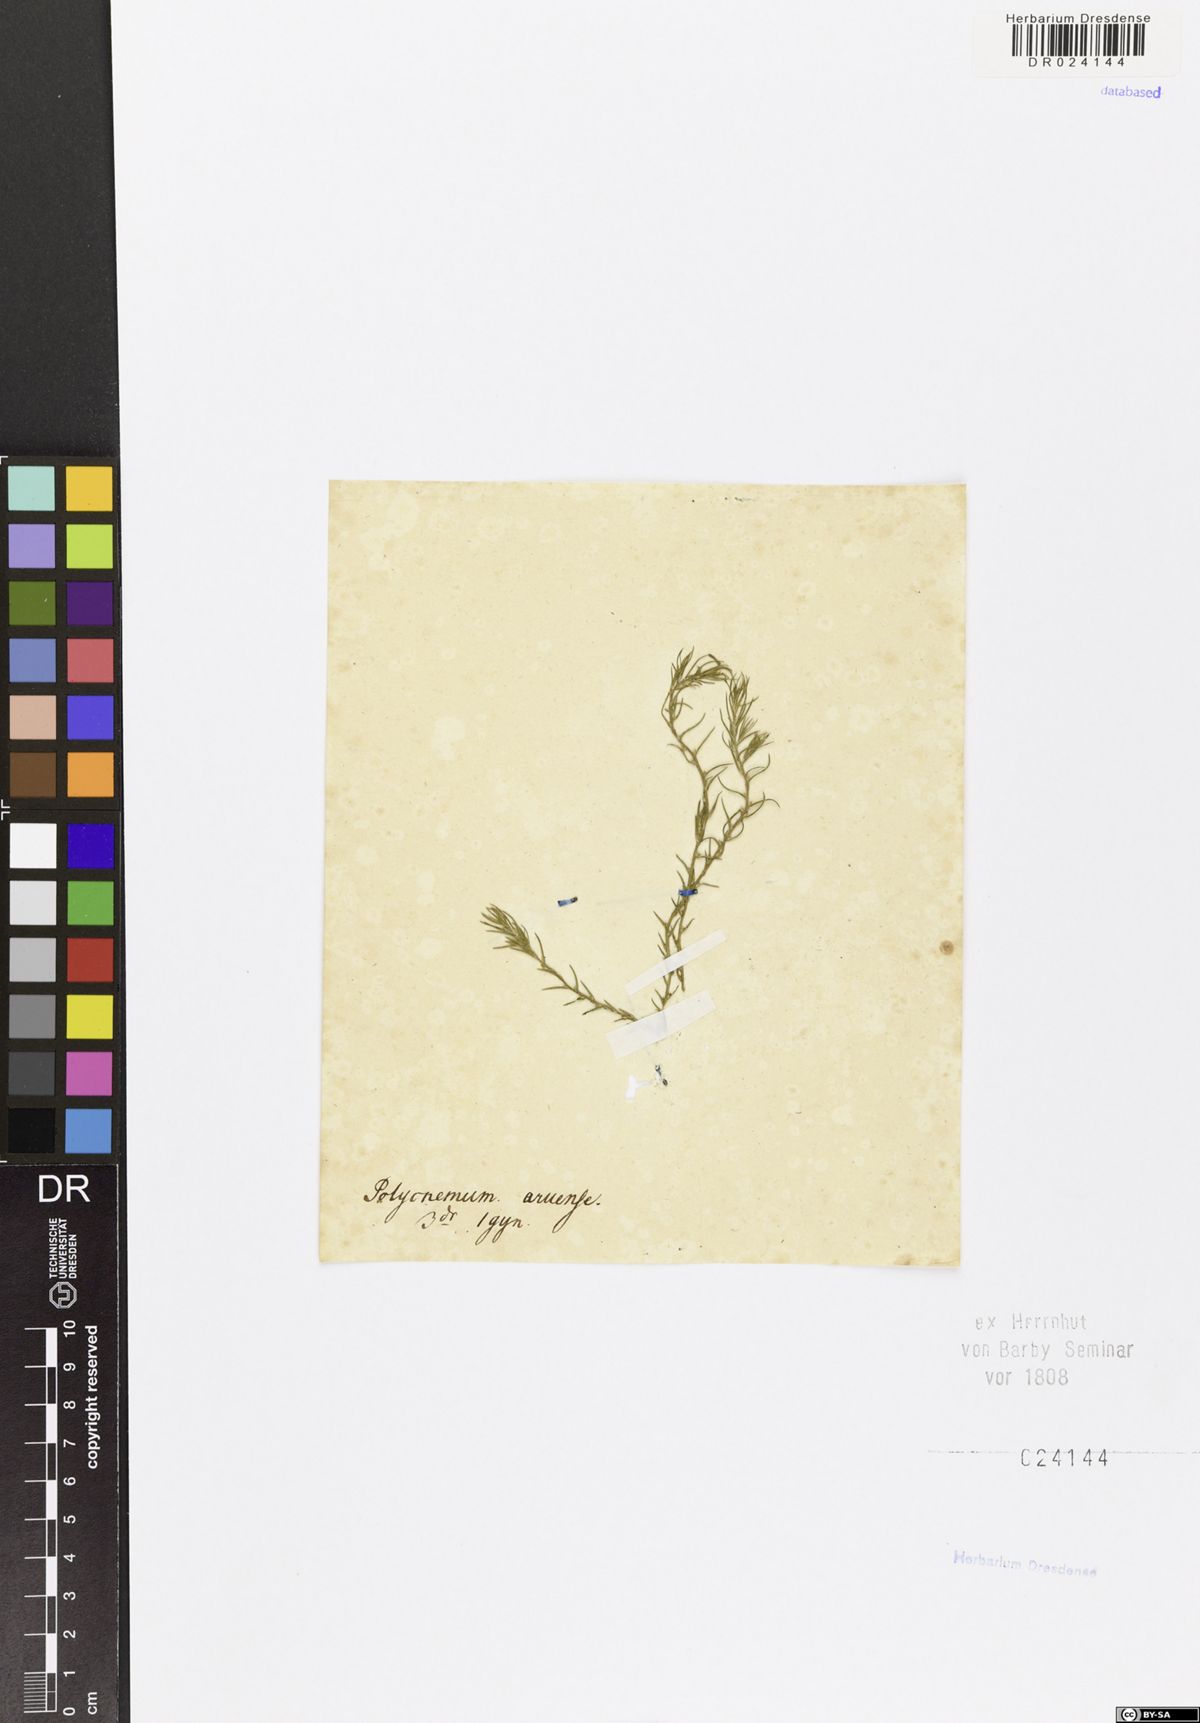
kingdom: Plantae
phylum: Tracheophyta
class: Magnoliopsida
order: Caryophyllales
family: Amaranthaceae
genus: Polycnemum
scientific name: Polycnemum arvense
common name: Soft needleleaf
